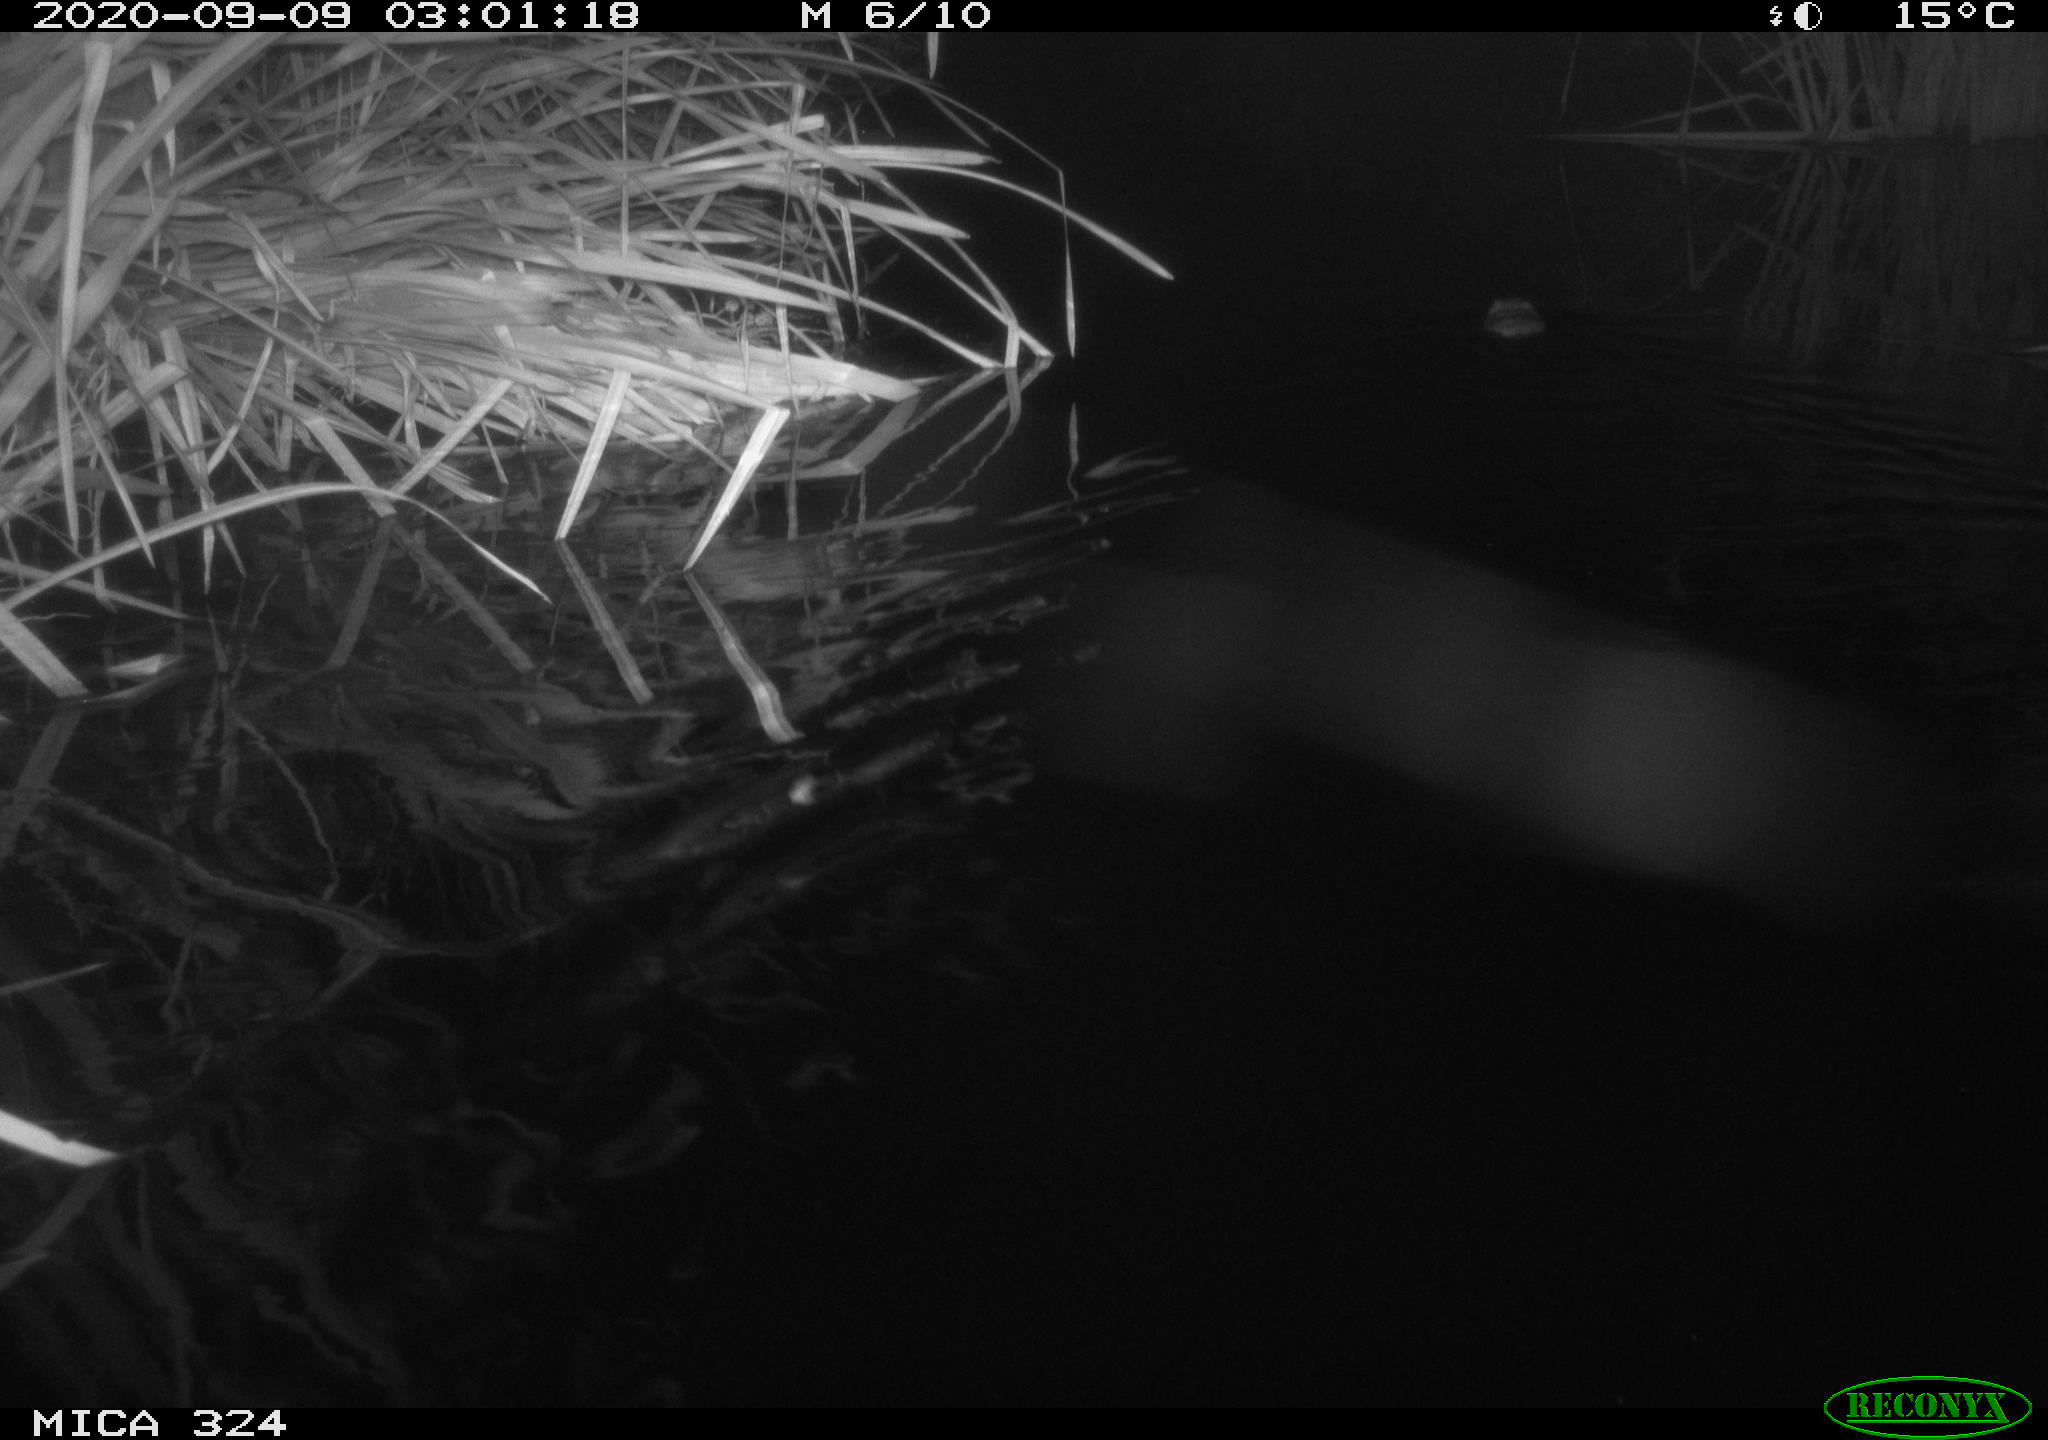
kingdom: Animalia
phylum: Chordata
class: Mammalia
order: Rodentia
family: Cricetidae
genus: Ondatra
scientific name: Ondatra zibethicus
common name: Muskrat
